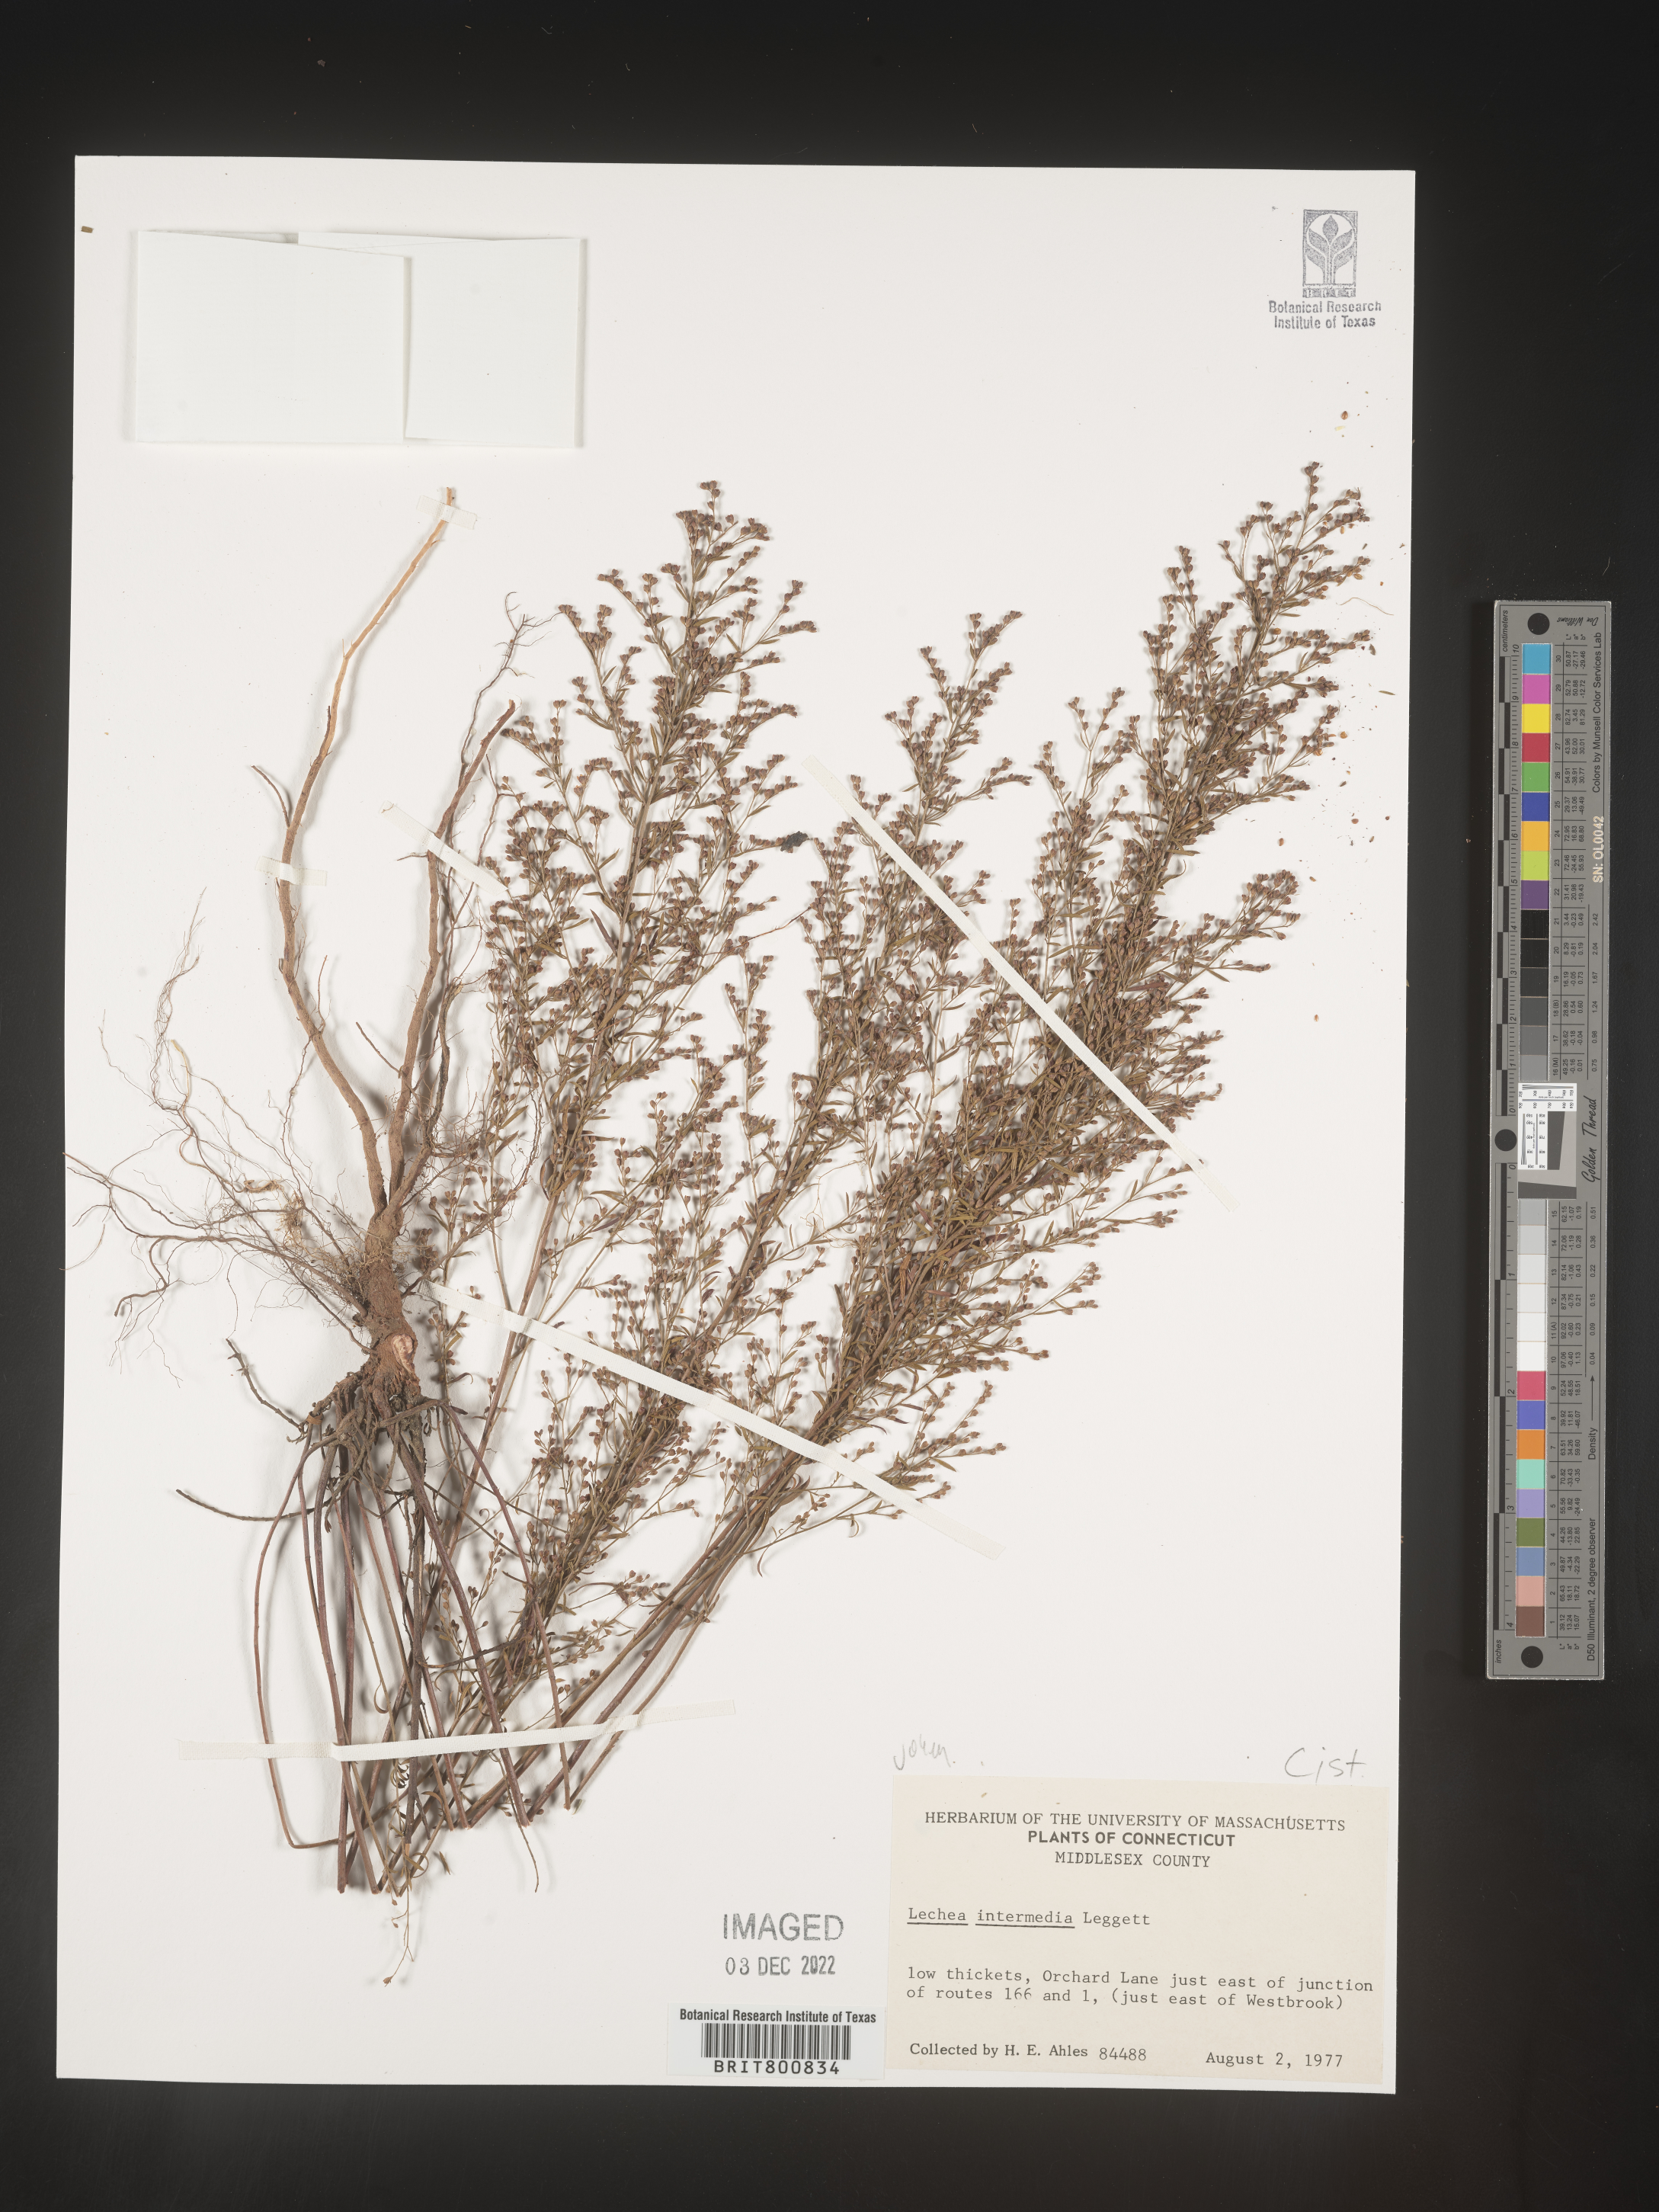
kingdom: Plantae
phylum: Tracheophyta
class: Magnoliopsida
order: Malvales
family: Cistaceae
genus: Lechea
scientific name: Lechea intermedia
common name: Intermediate pinweed
